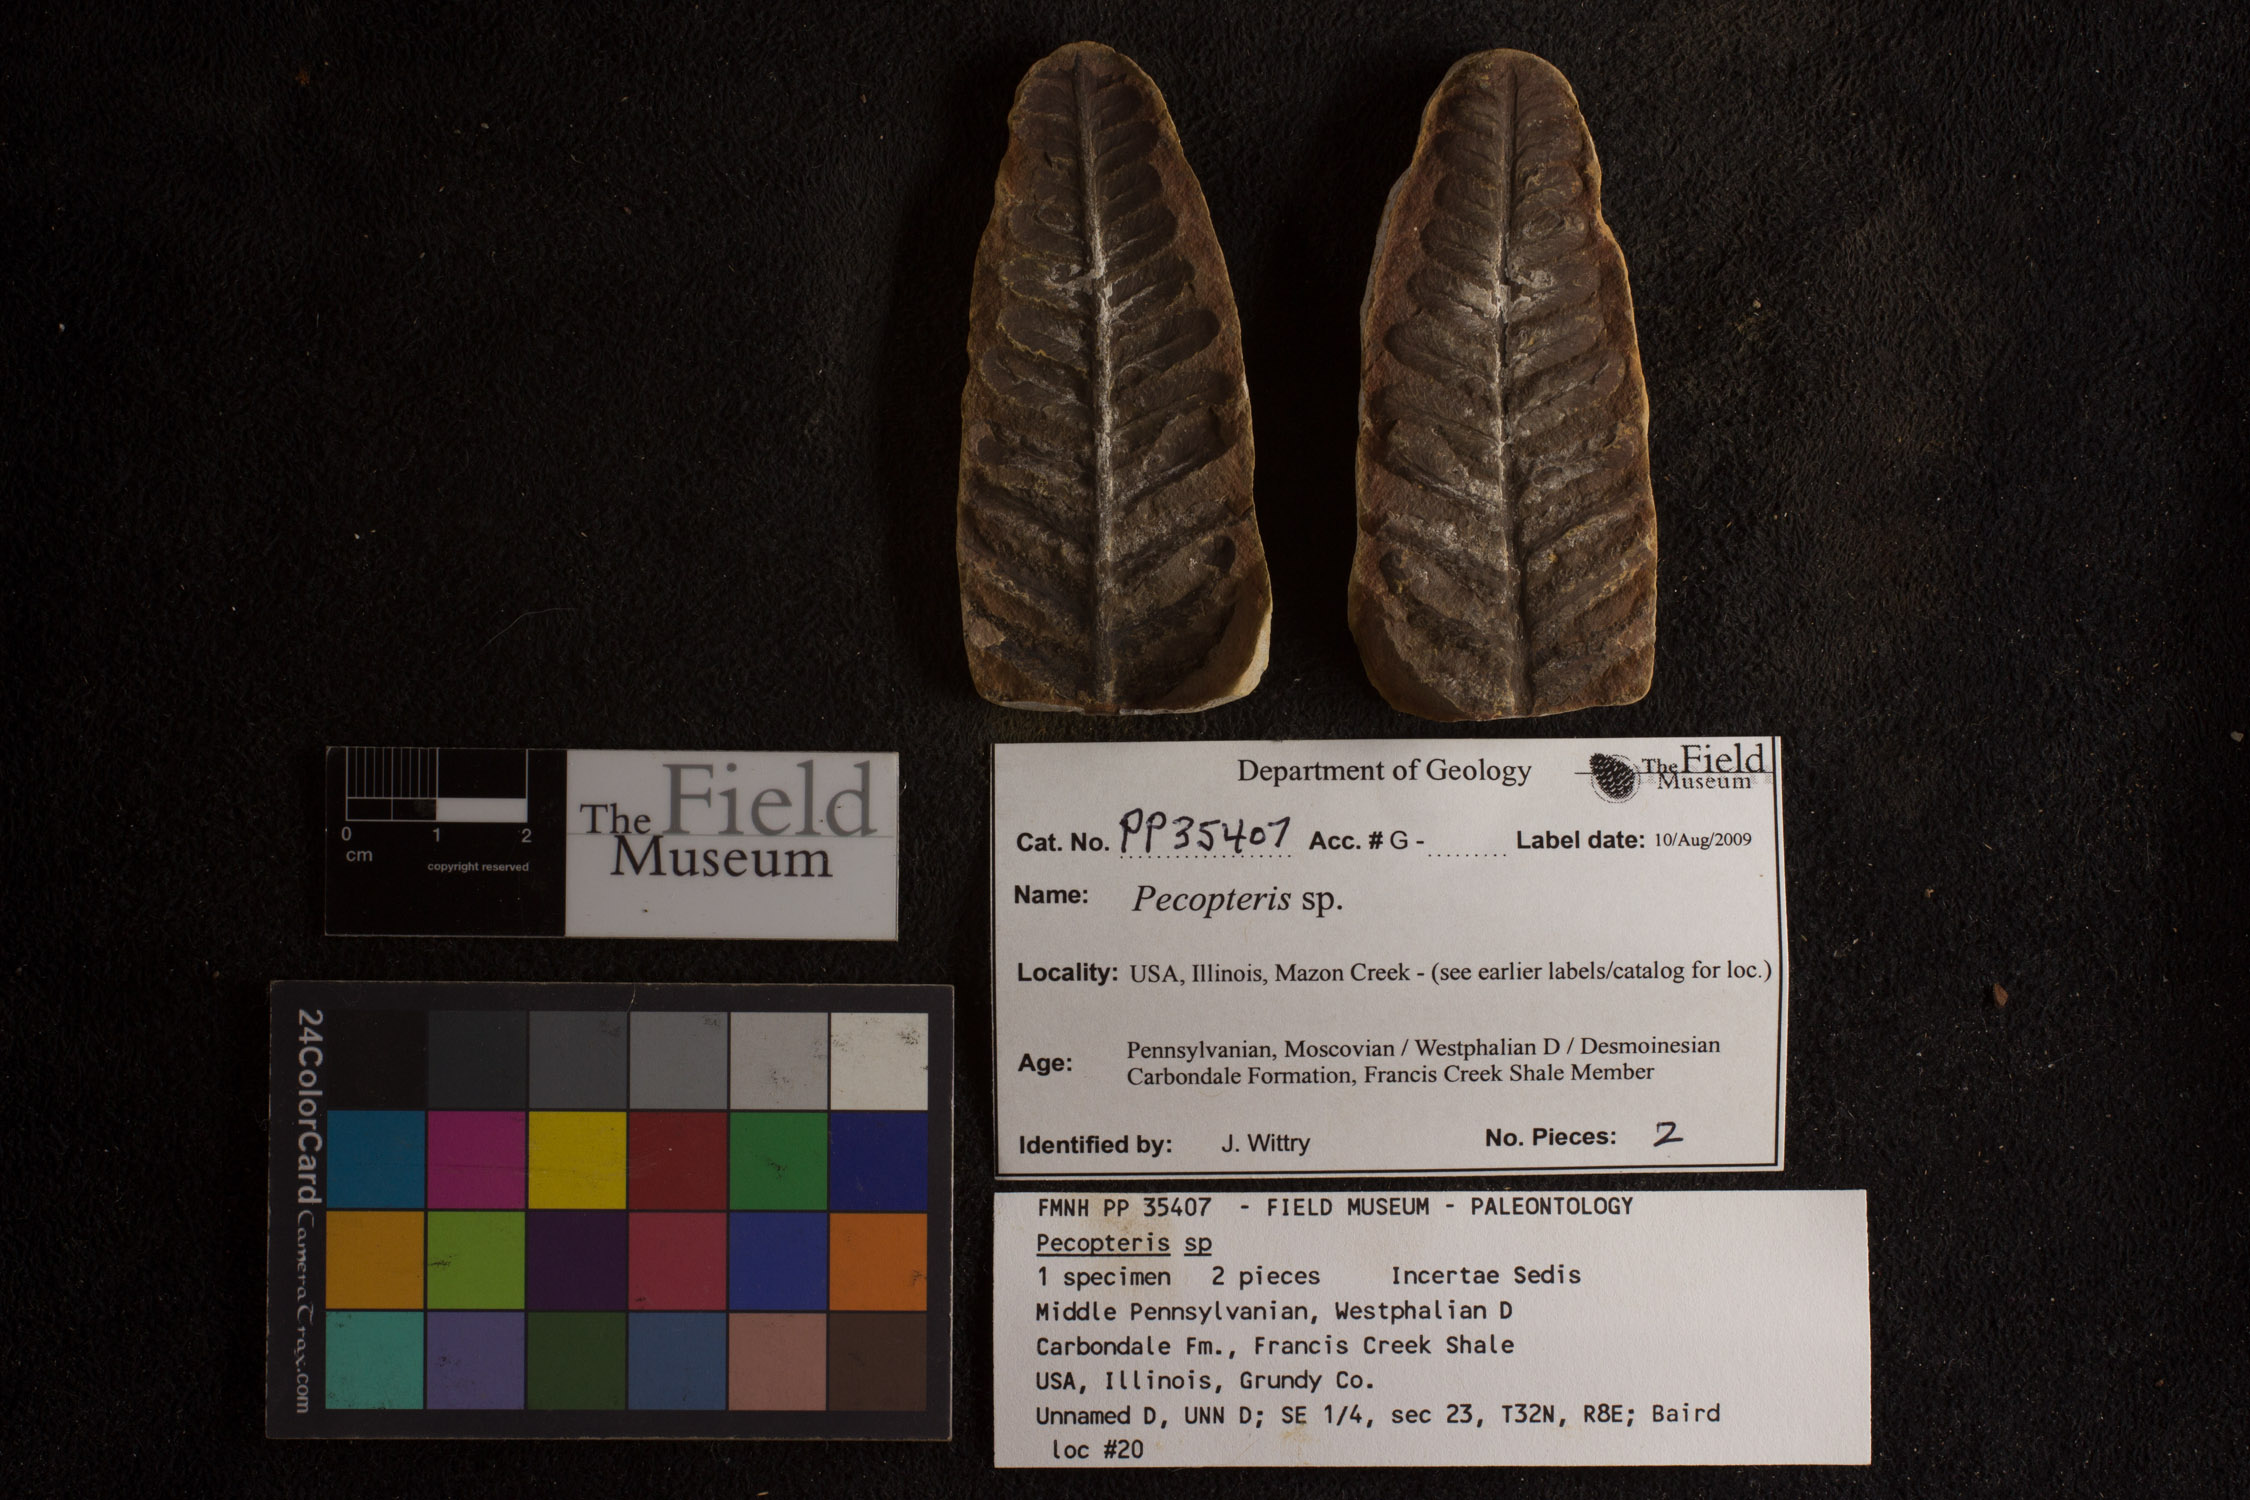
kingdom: Plantae
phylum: Tracheophyta
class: Polypodiopsida
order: Marattiales
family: Asterothecaceae
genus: Pecopteris
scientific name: Pecopteris
